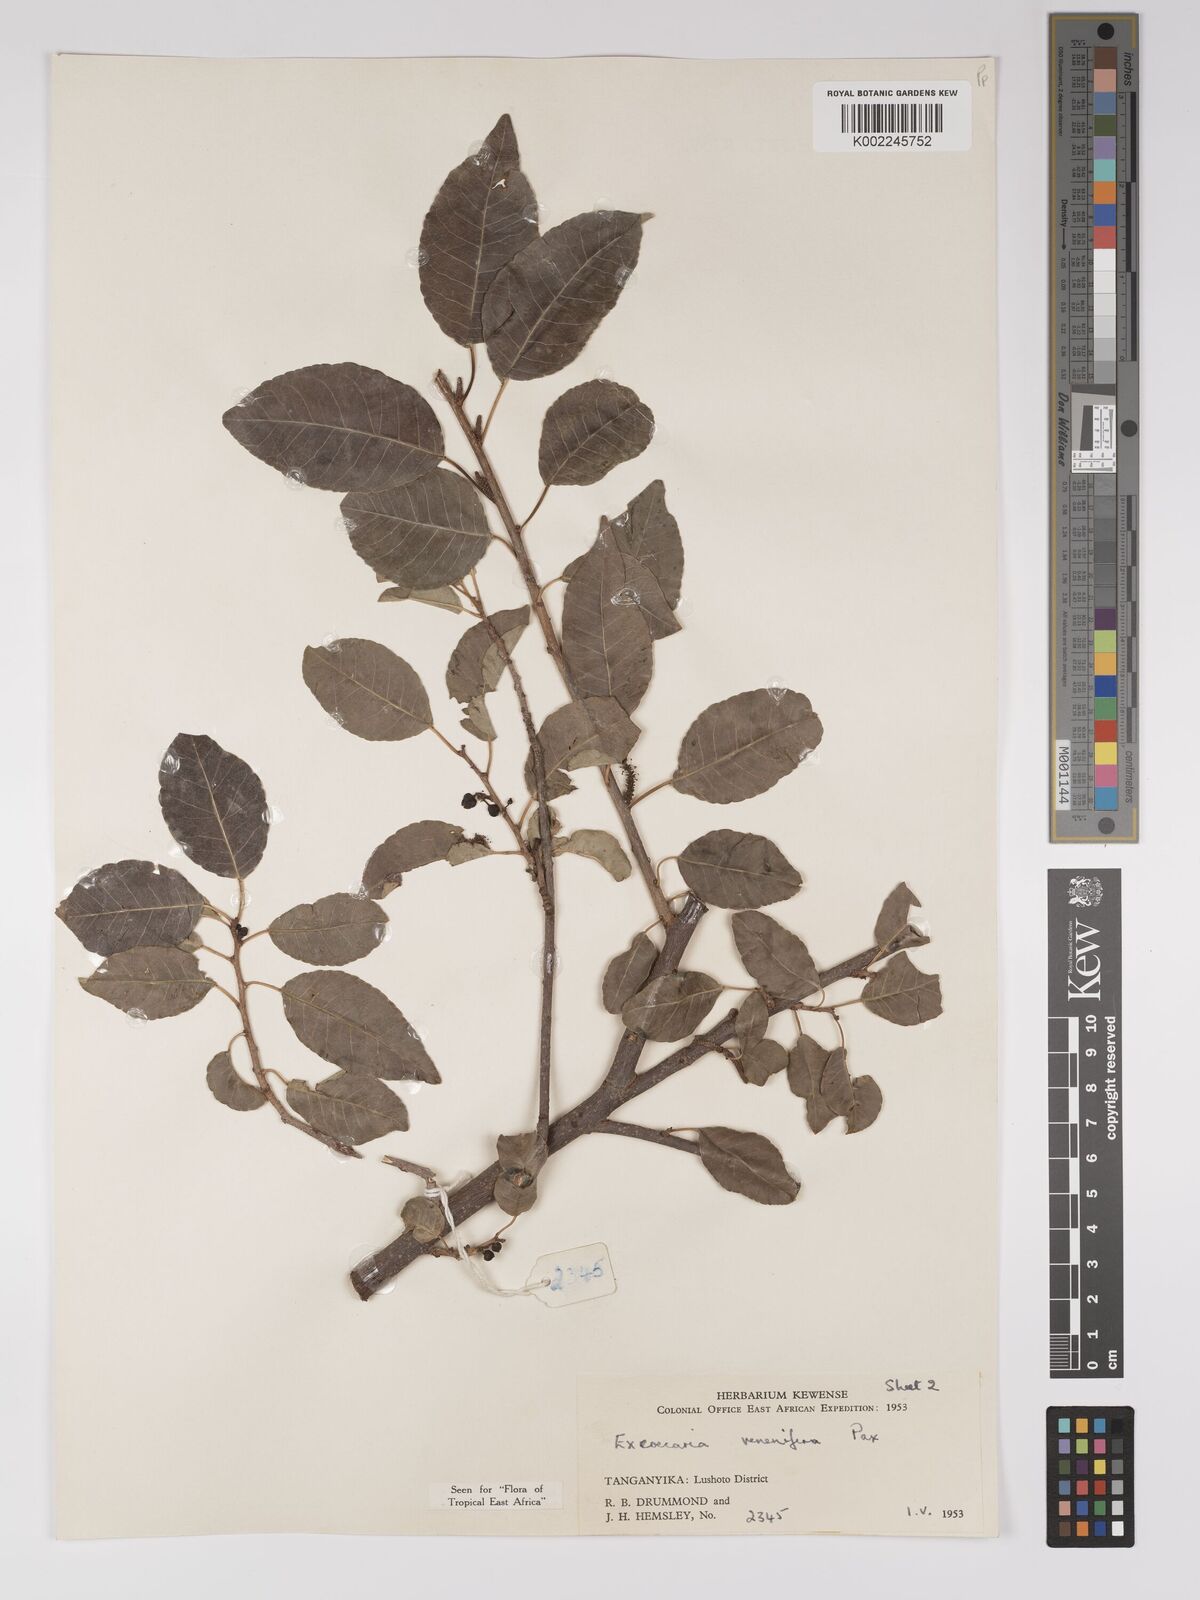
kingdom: Plantae
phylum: Tracheophyta
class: Magnoliopsida
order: Malpighiales
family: Euphorbiaceae
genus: Spirostachys
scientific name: Spirostachys venenifera
